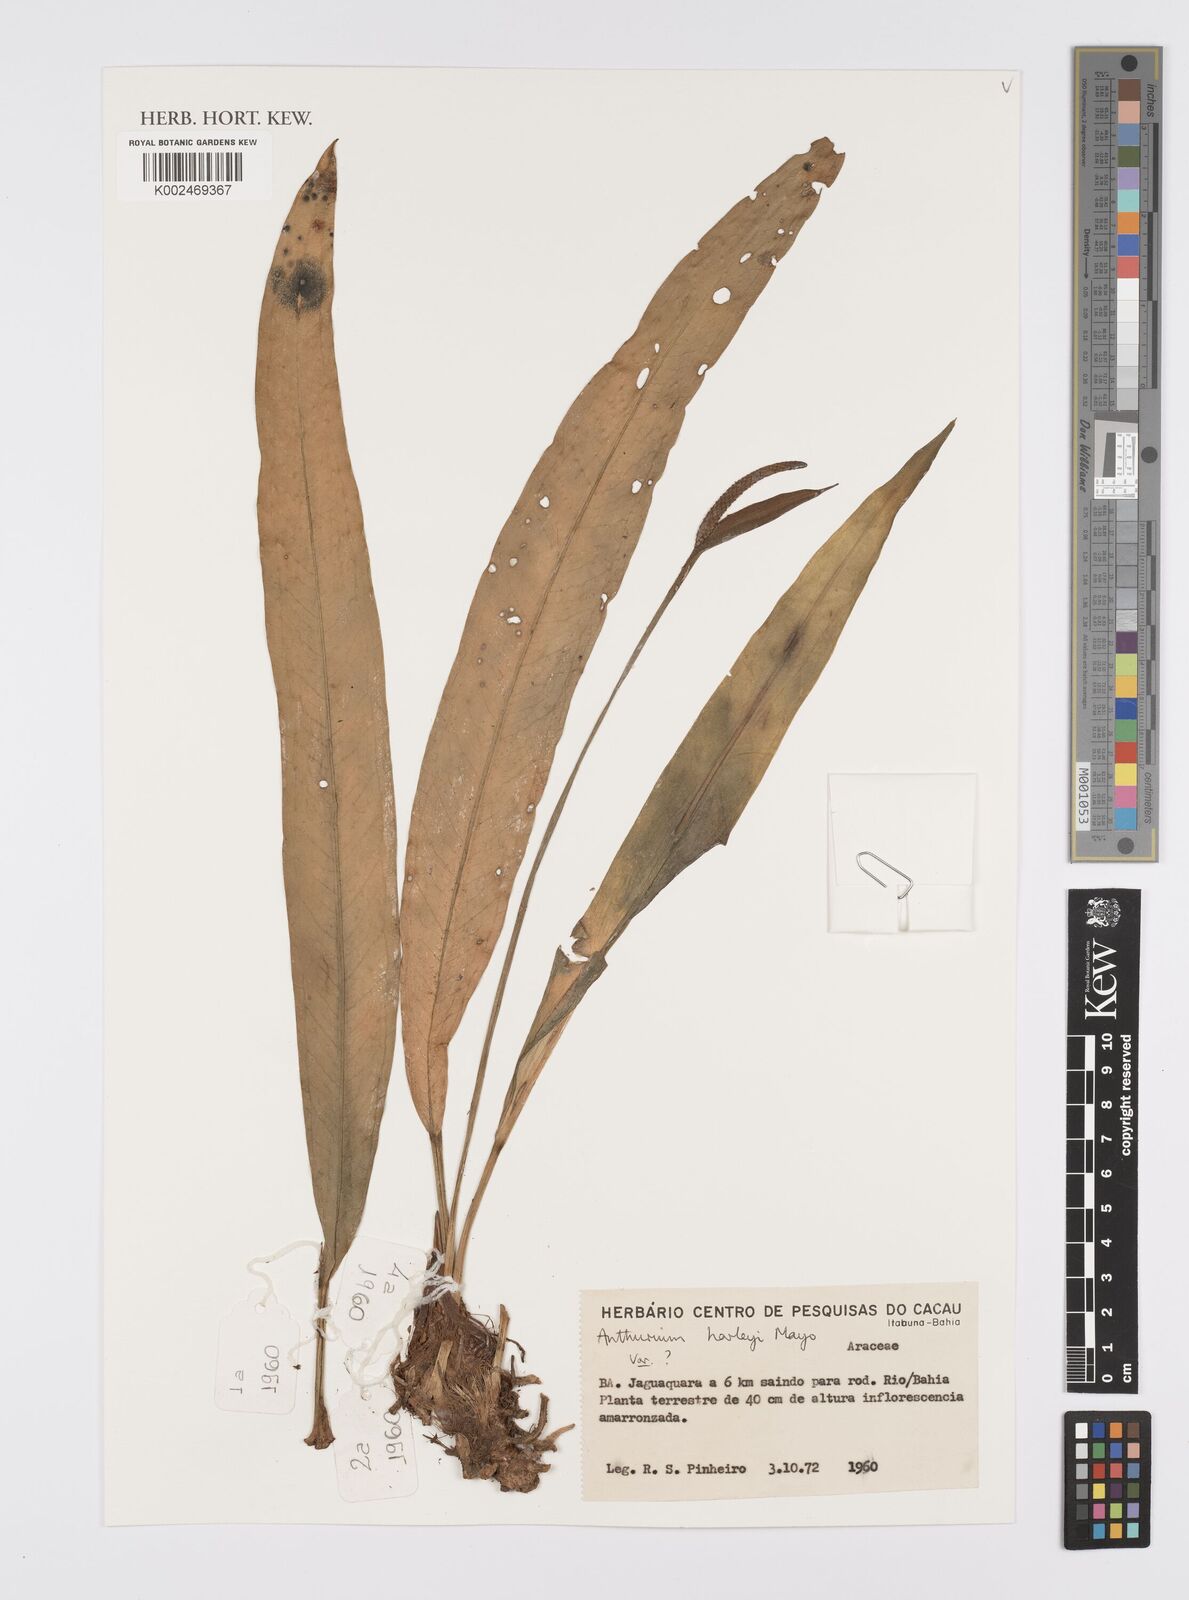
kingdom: Plantae
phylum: Tracheophyta
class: Liliopsida
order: Alismatales
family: Araceae
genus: Anthurium
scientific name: Anthurium erskinei
